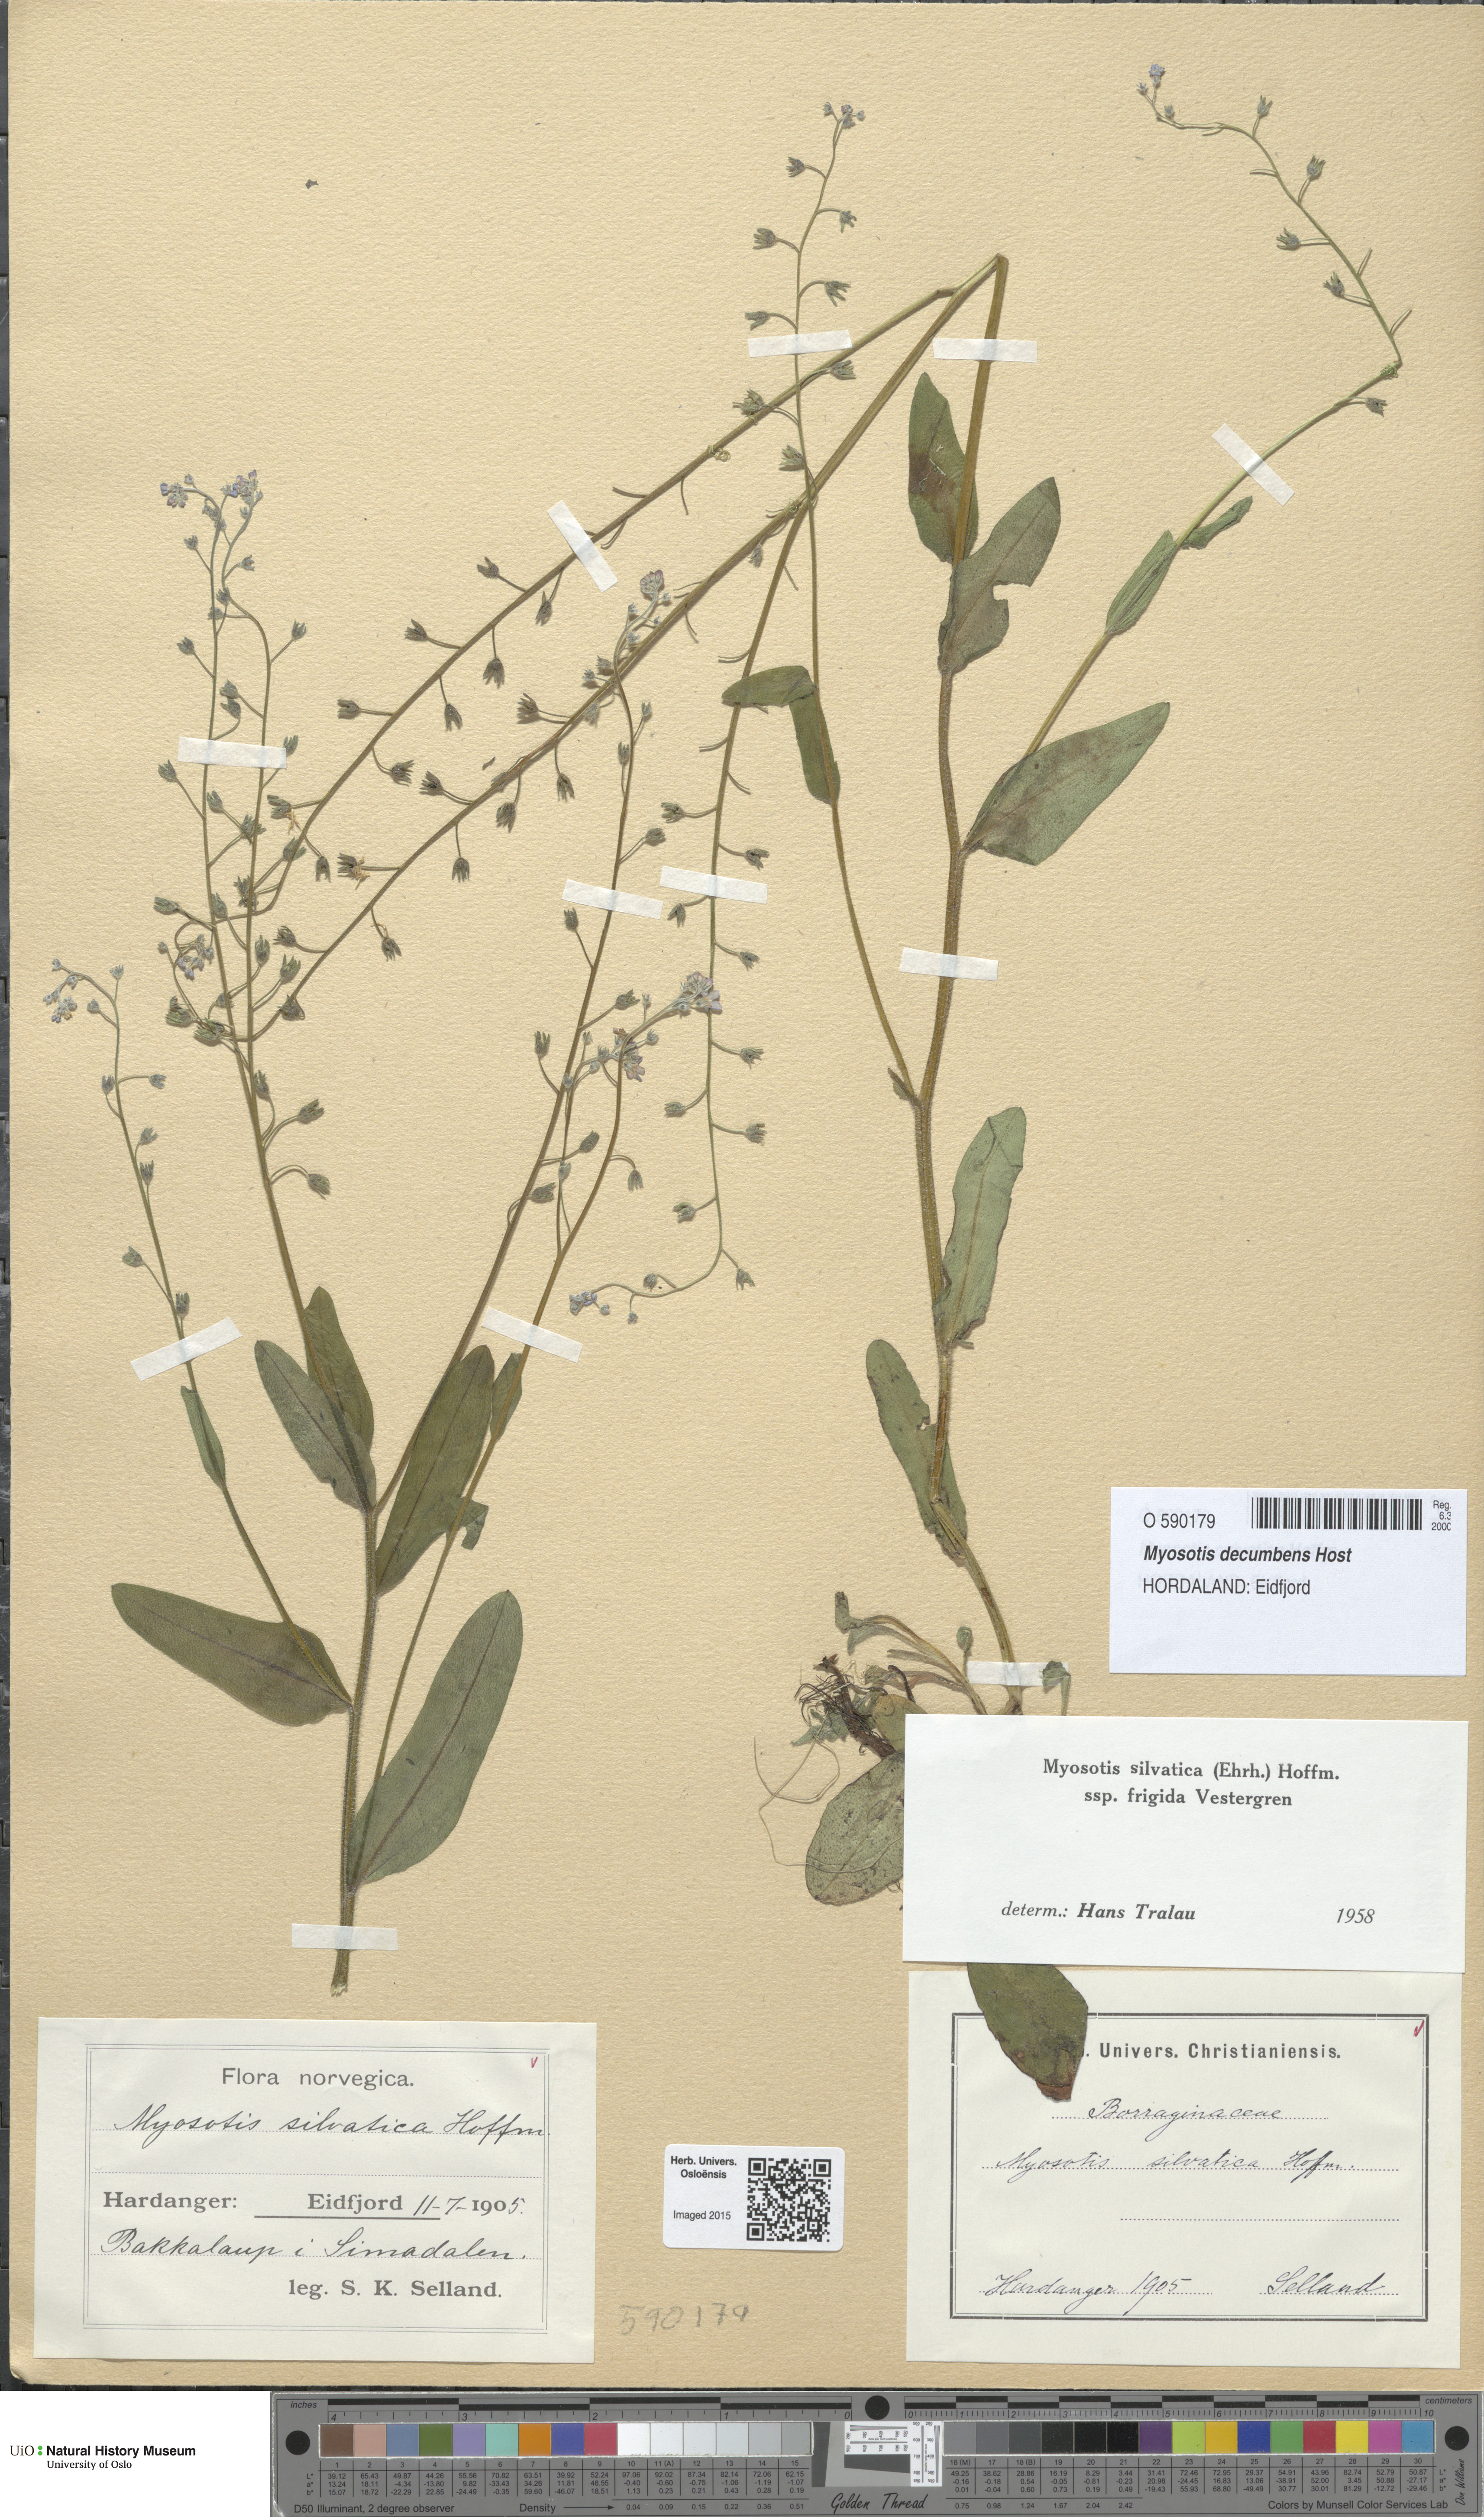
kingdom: Plantae
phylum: Tracheophyta
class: Magnoliopsida
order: Boraginales
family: Boraginaceae
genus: Myosotis
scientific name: Myosotis decumbens
